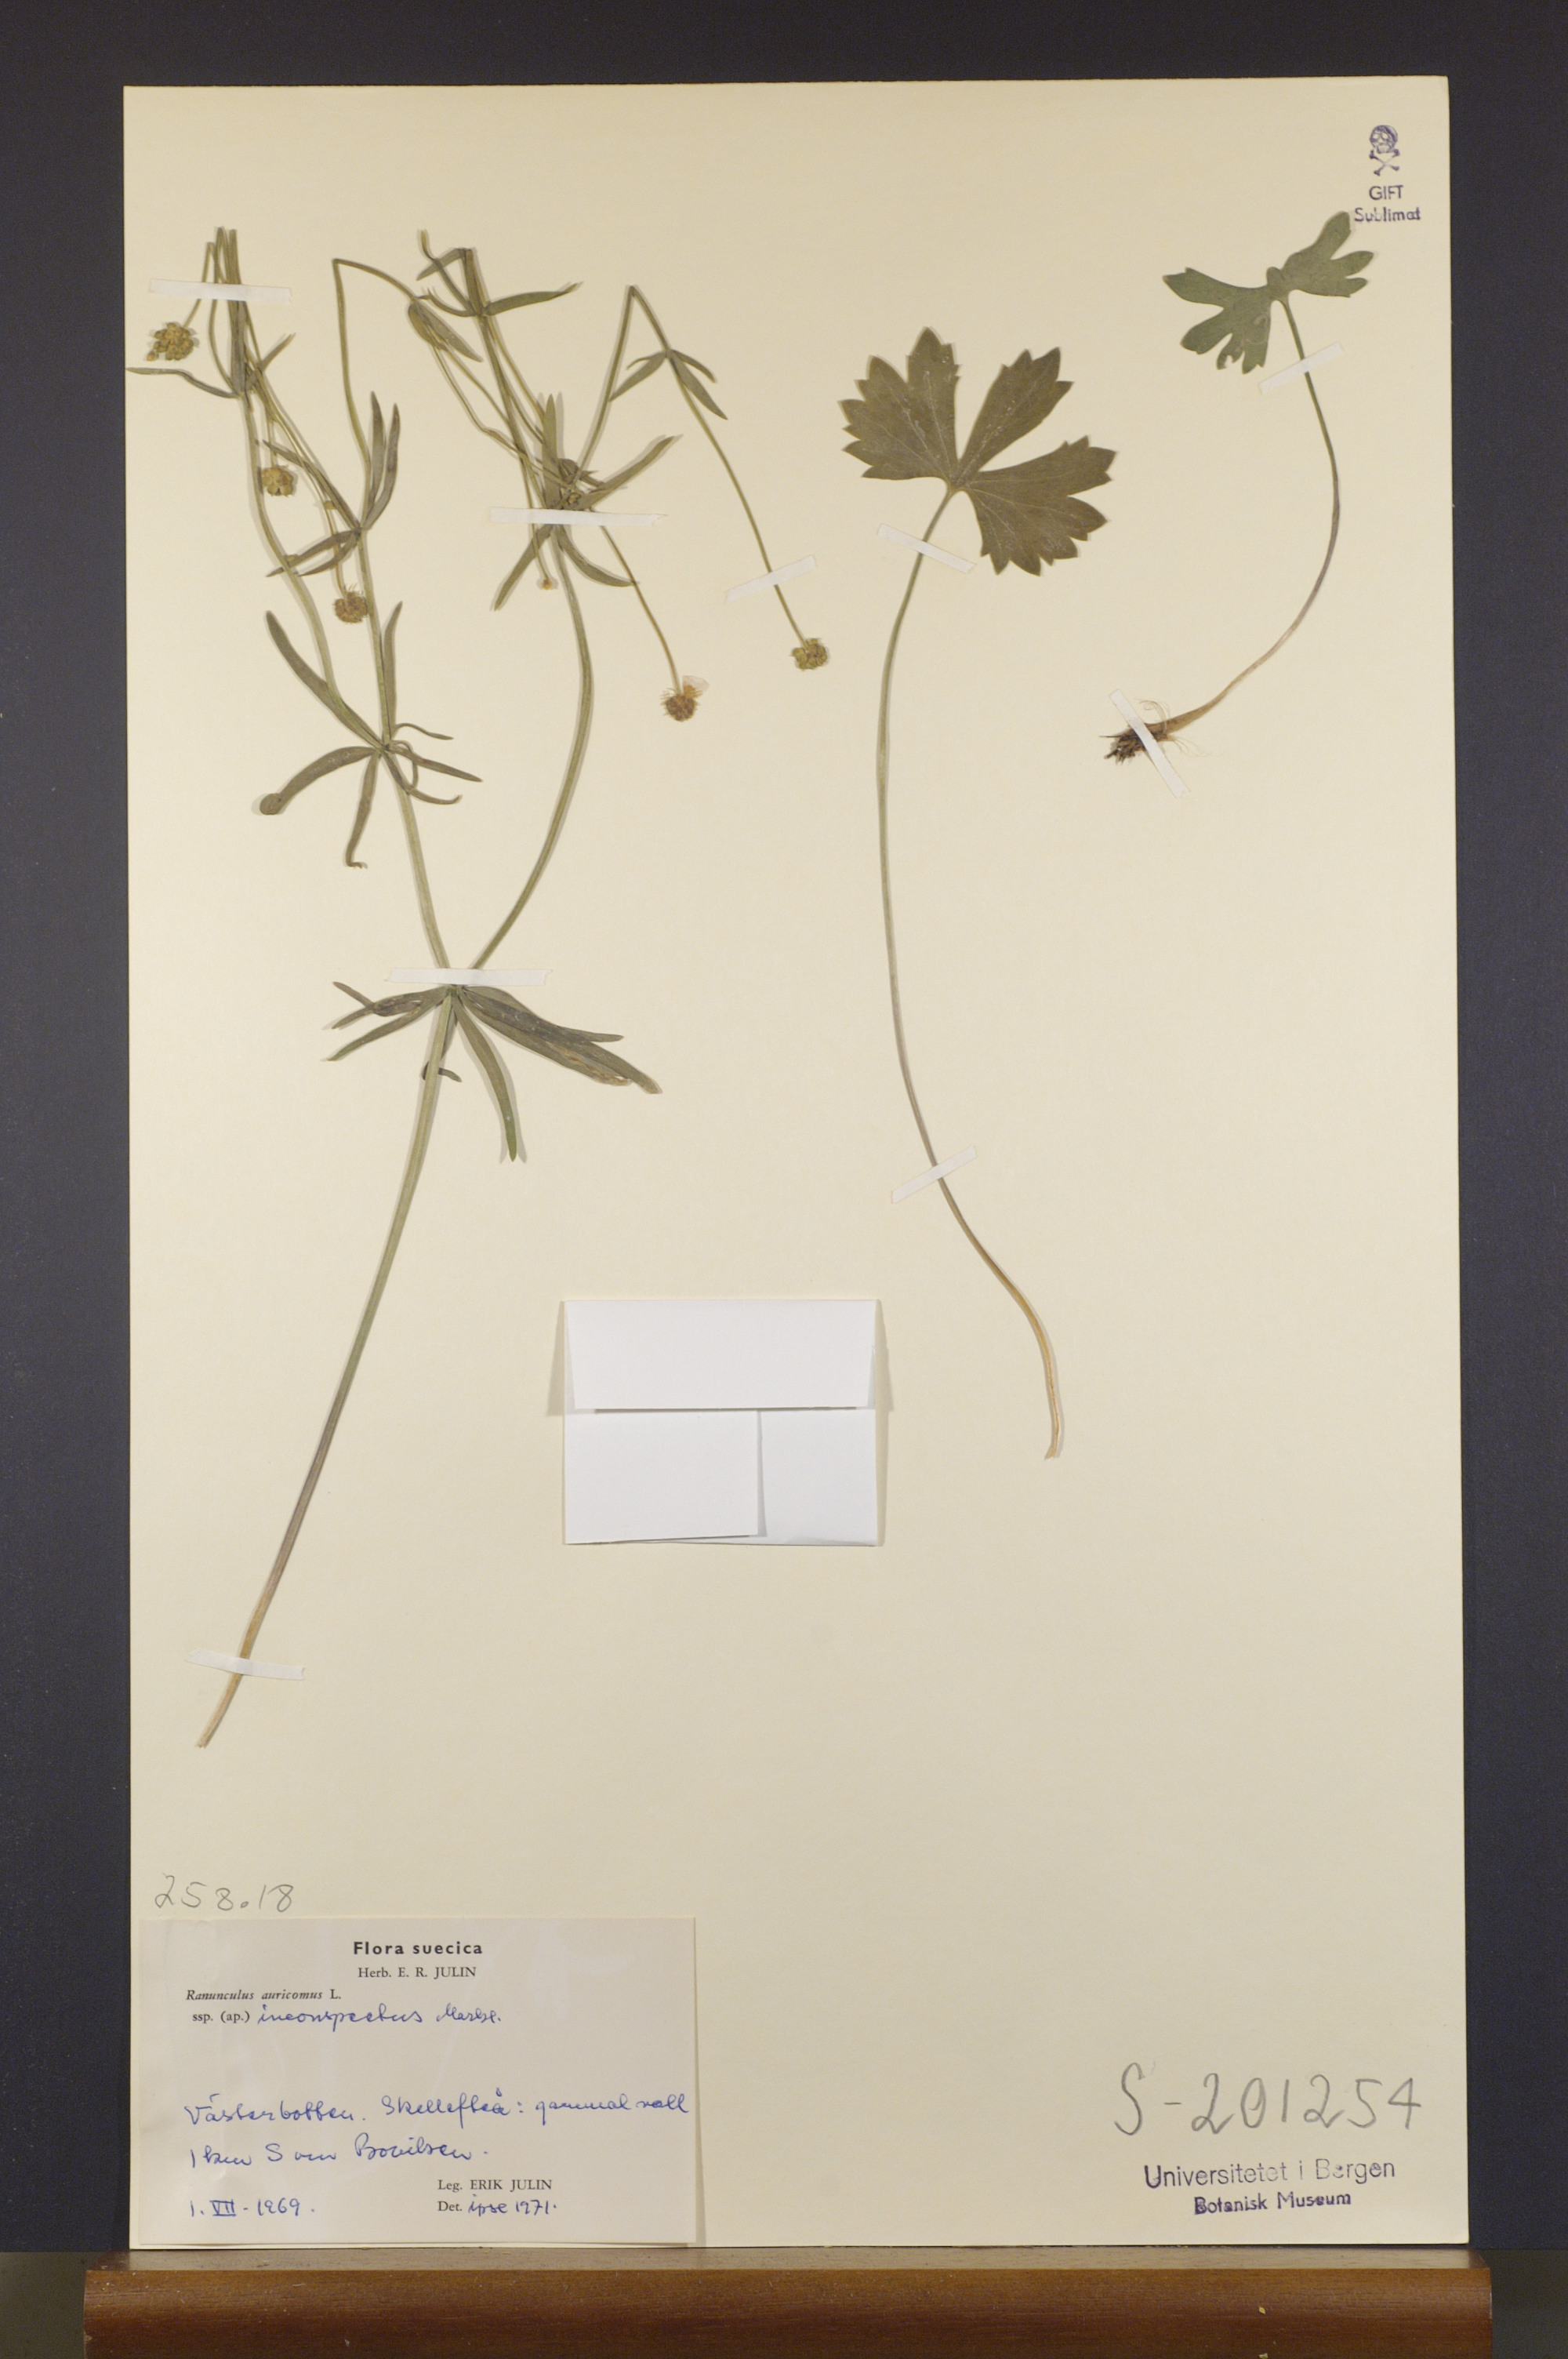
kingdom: Plantae
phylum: Tracheophyta
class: Magnoliopsida
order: Ranunculales
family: Ranunculaceae
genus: Ranunculus
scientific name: Ranunculus inconspectus
